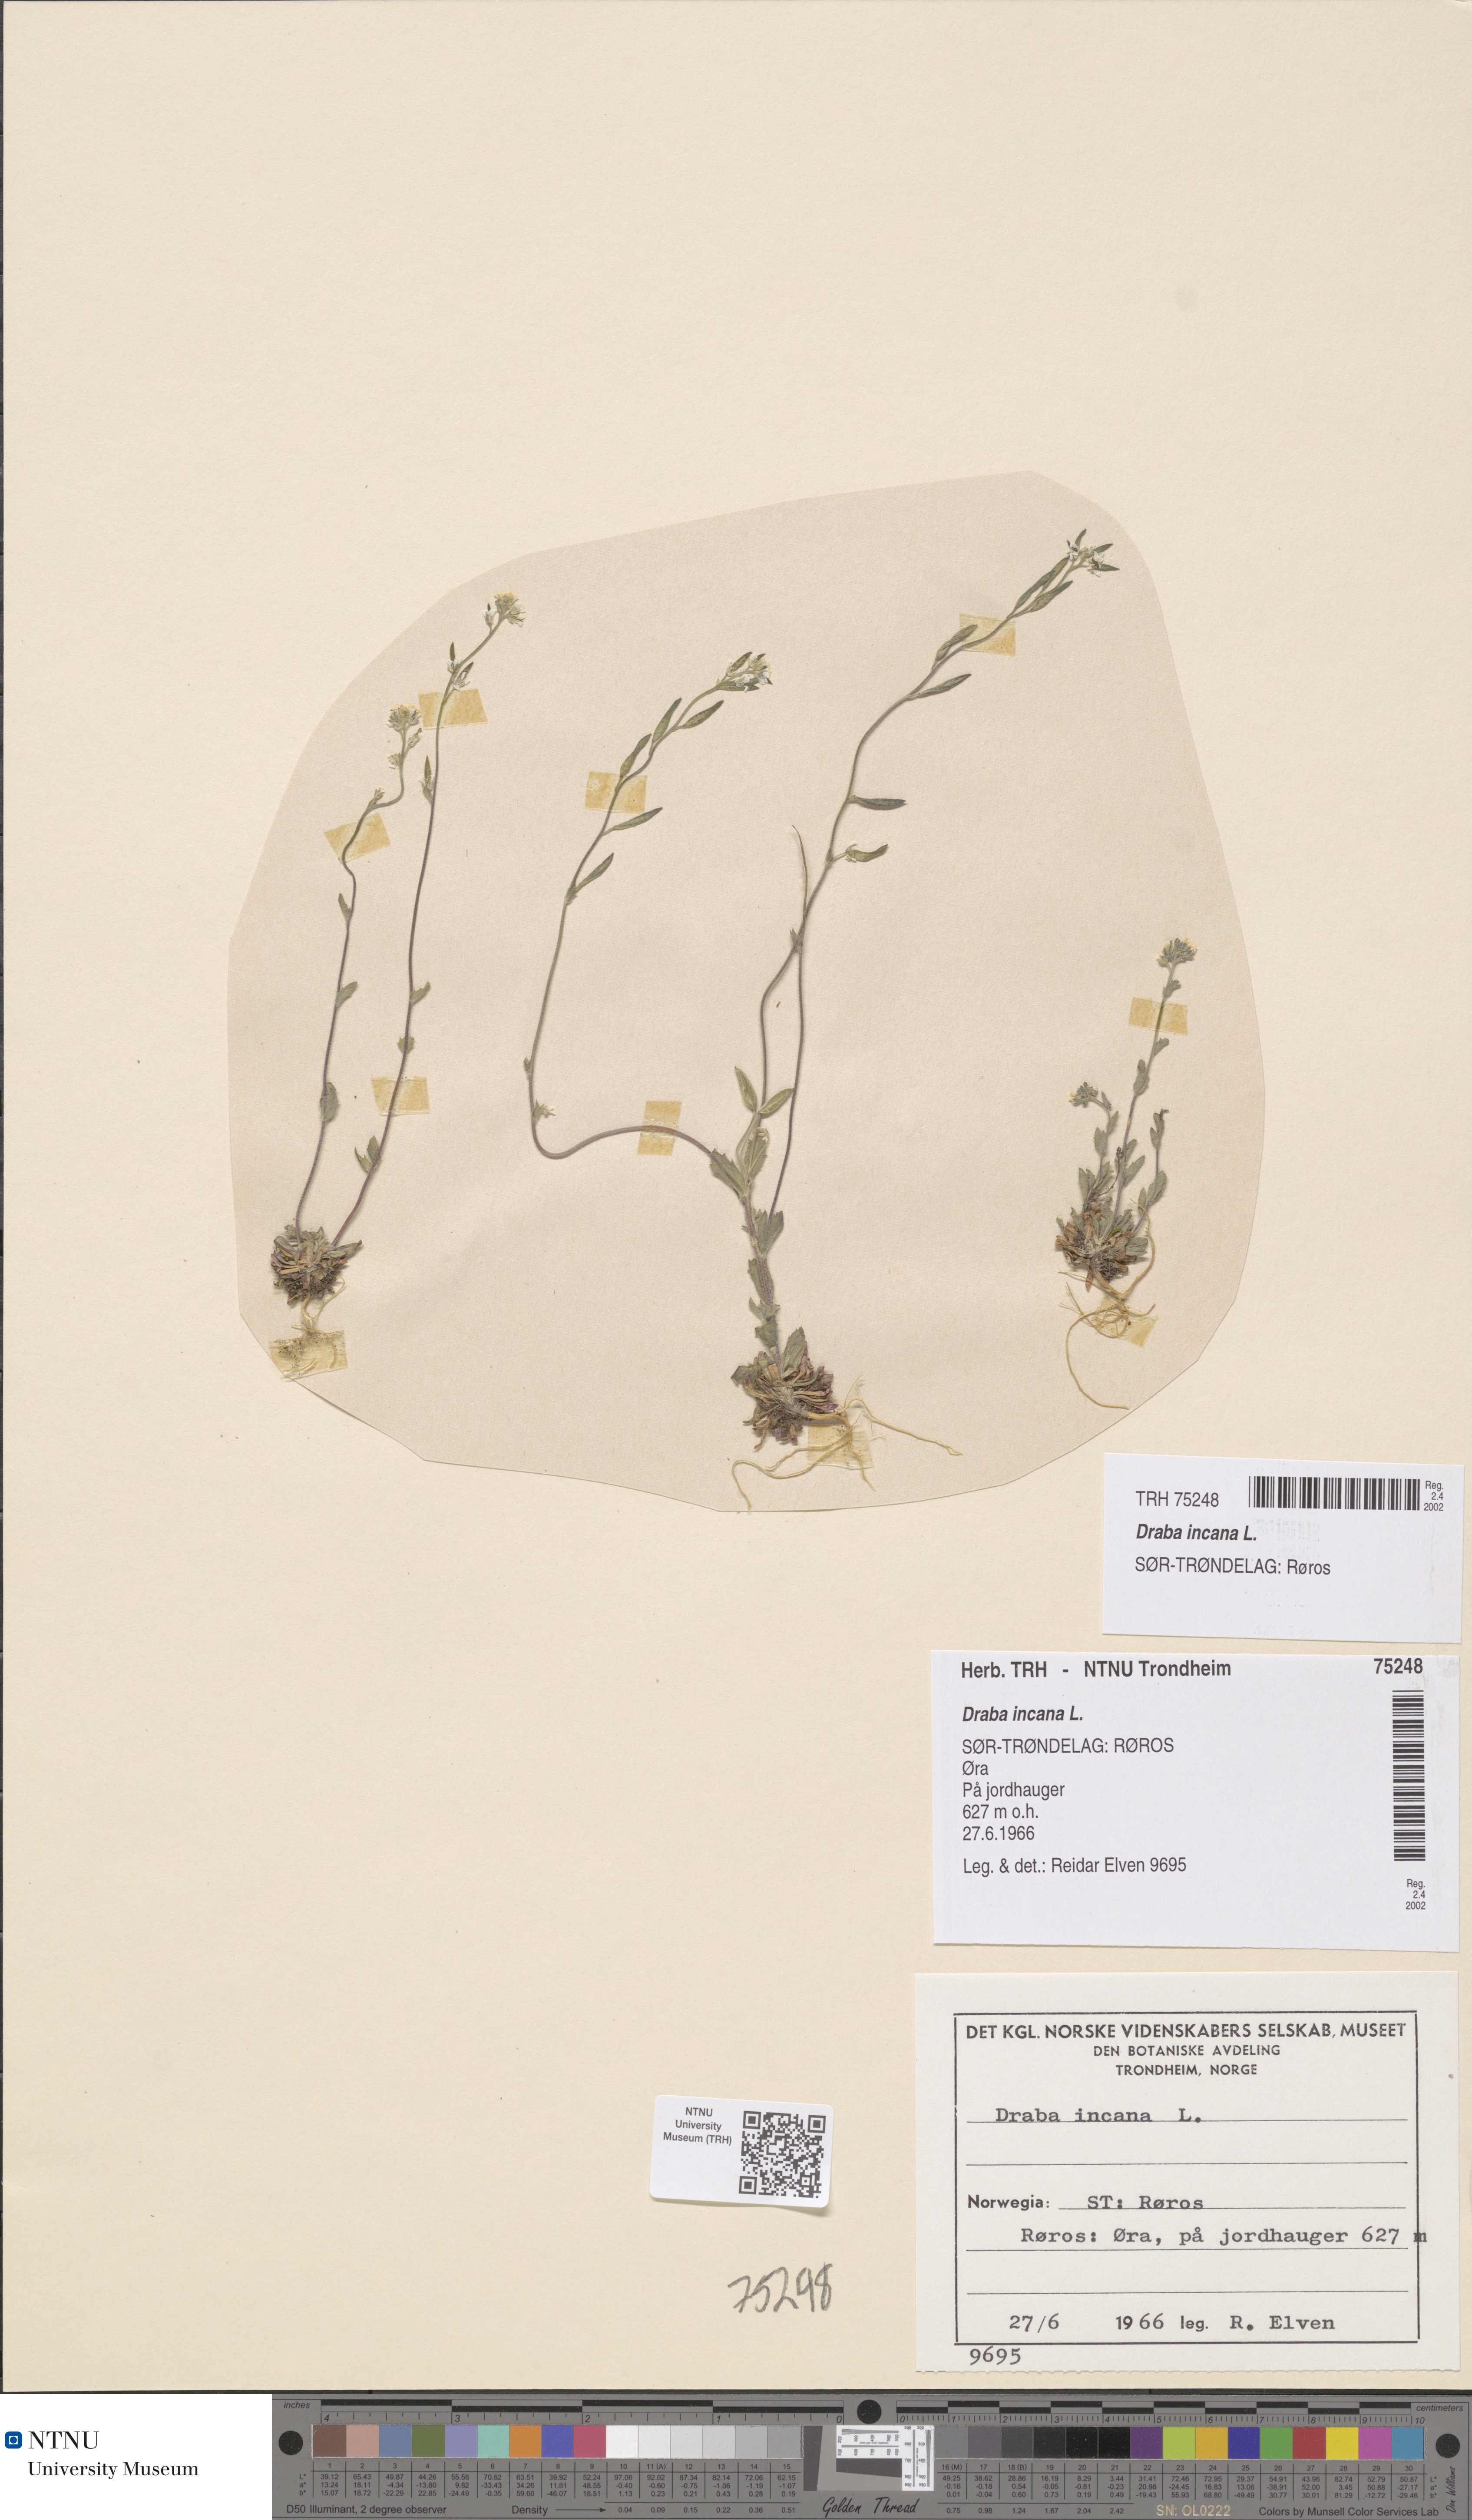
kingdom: Plantae
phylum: Tracheophyta
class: Magnoliopsida
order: Brassicales
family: Brassicaceae
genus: Draba
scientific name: Draba incana
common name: Hoary whitlow-grass
